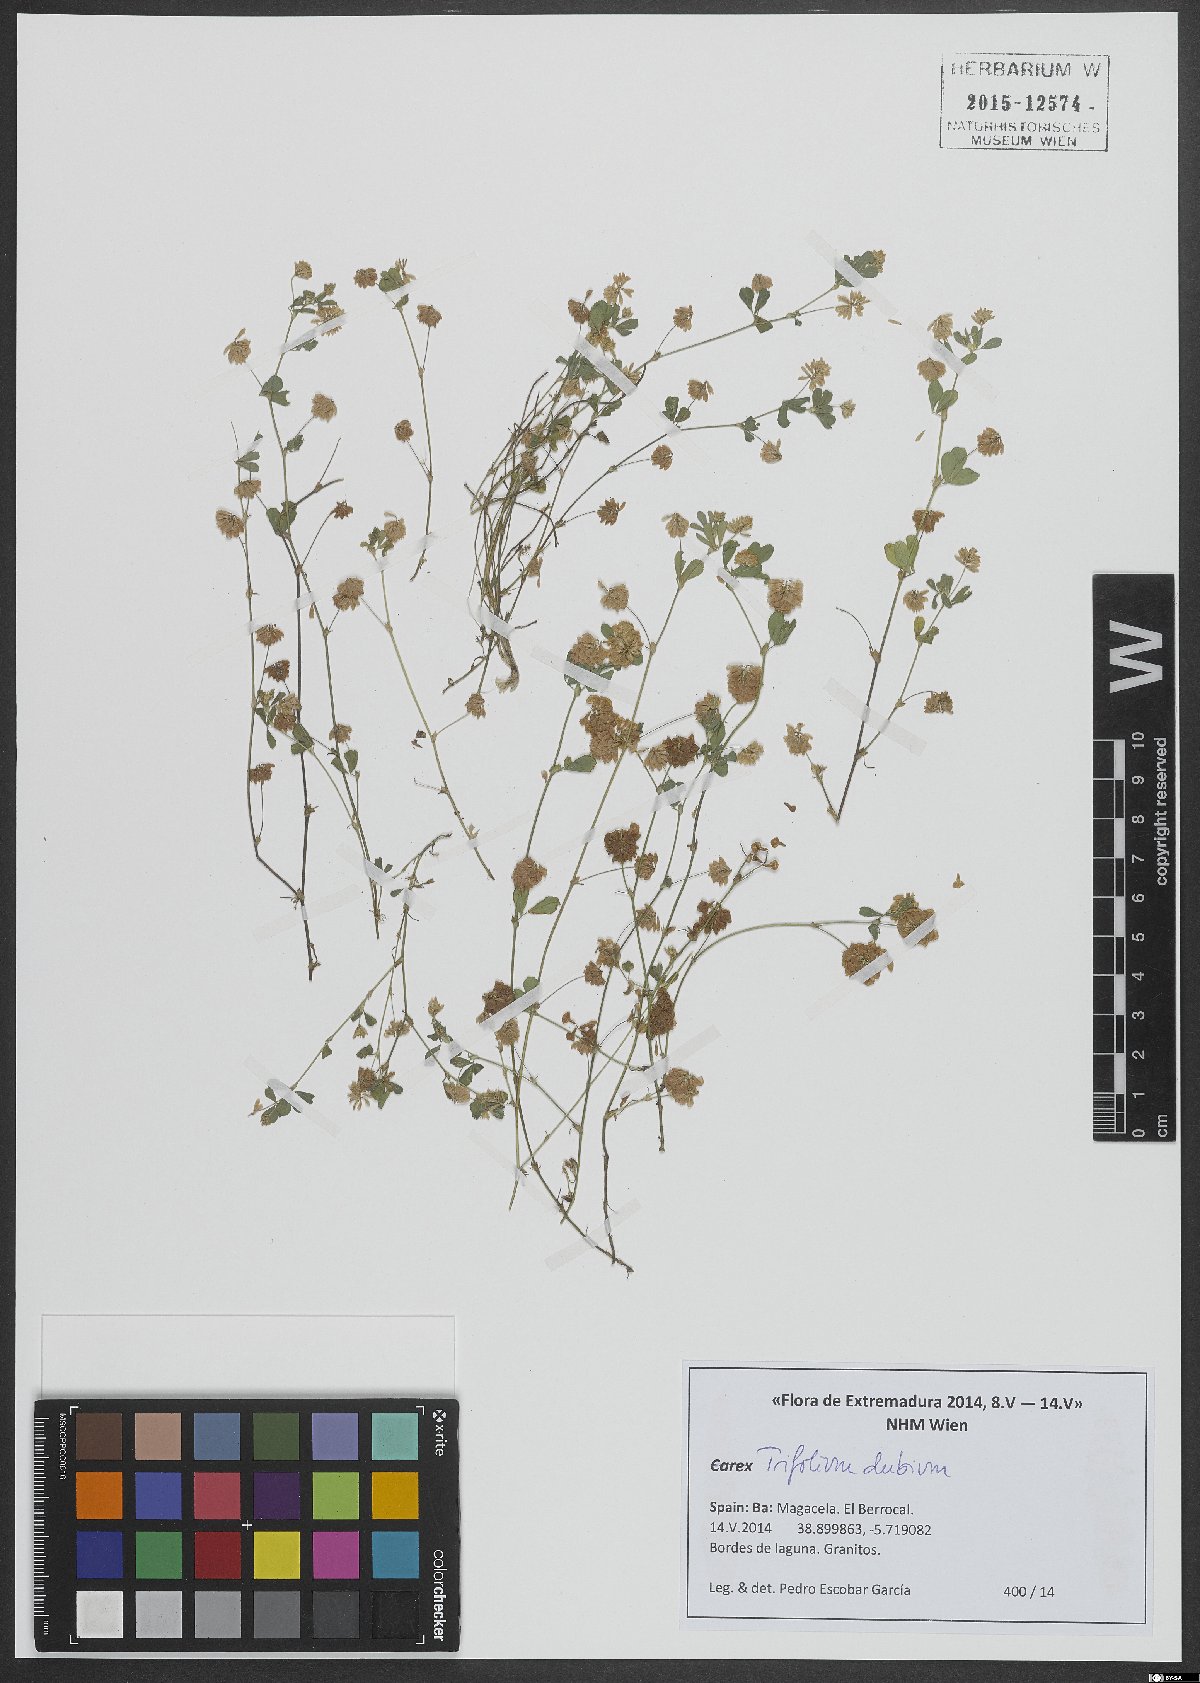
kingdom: Plantae
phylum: Tracheophyta
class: Magnoliopsida
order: Fabales
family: Fabaceae
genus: Trifolium
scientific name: Trifolium dubium
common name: Suckling clover
